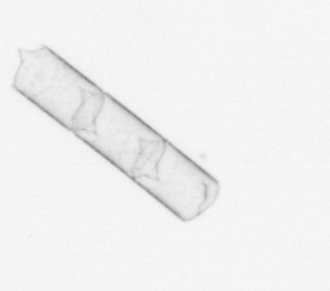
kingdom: Chromista
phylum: Ochrophyta
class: Bacillariophyceae
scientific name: Bacillariophyceae
